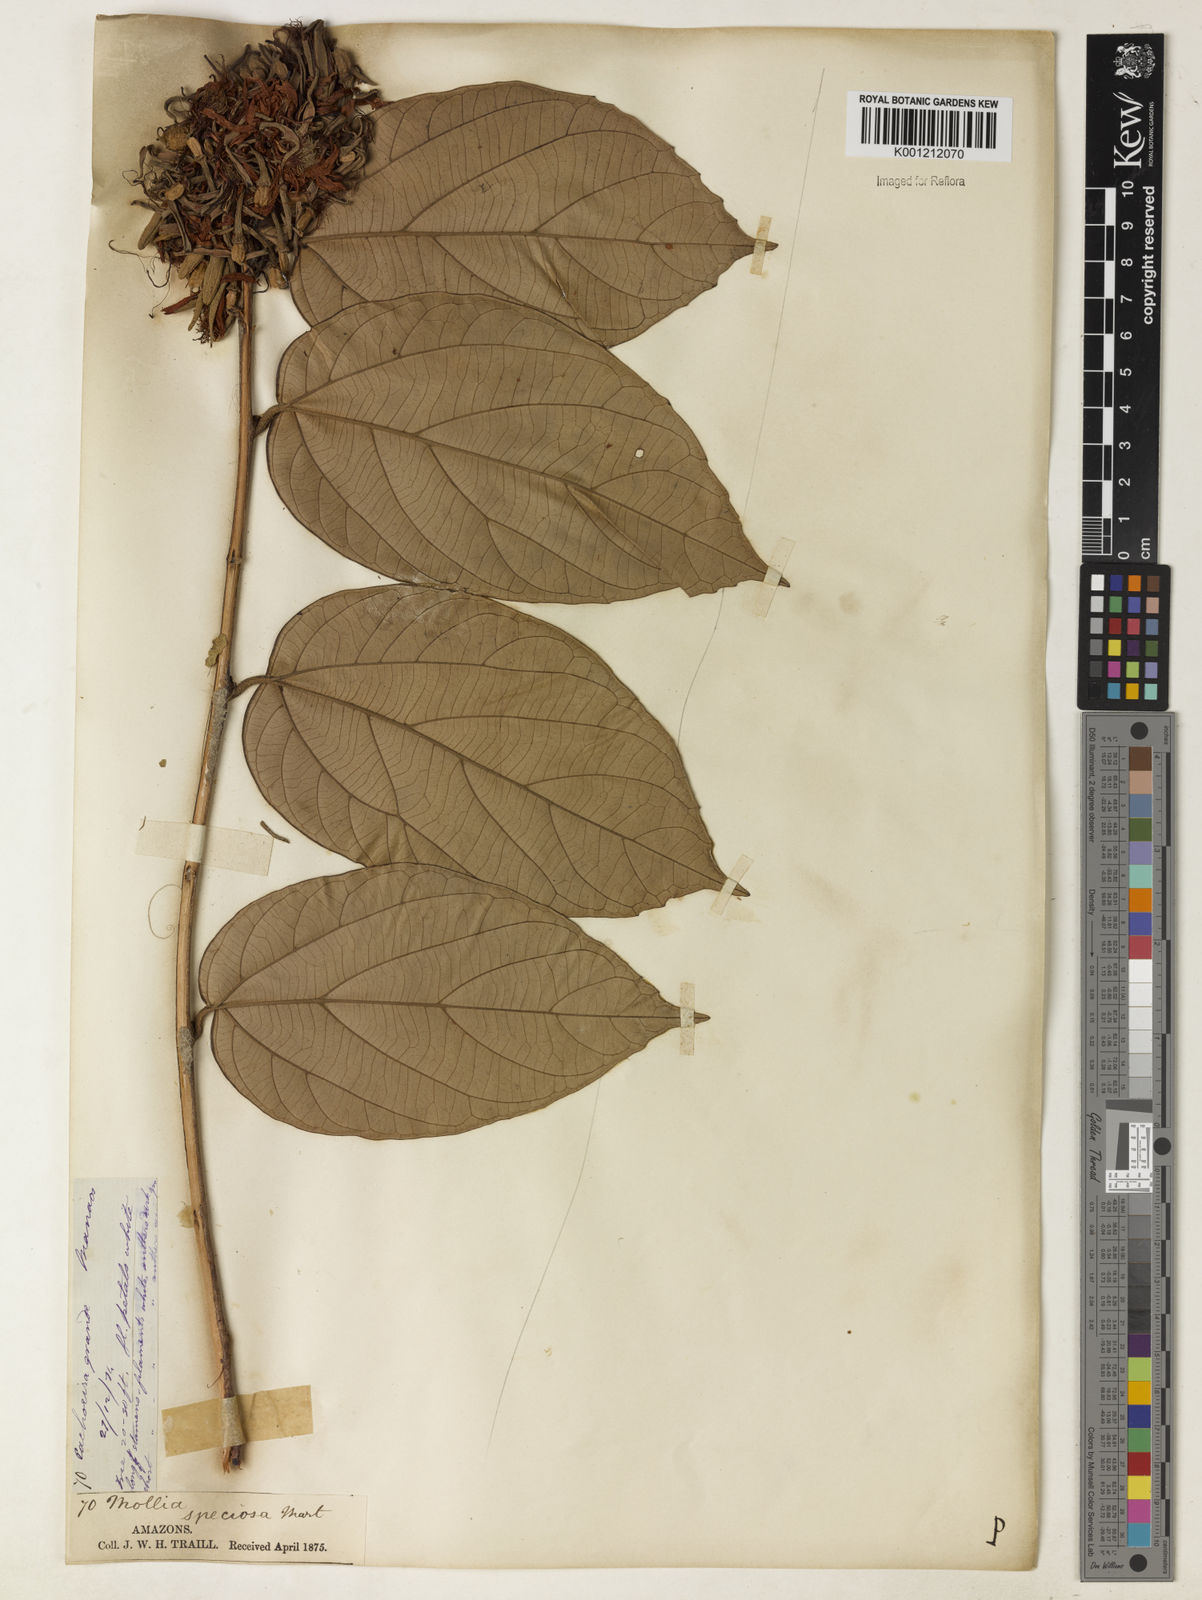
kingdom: Plantae
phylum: Tracheophyta
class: Magnoliopsida
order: Malvales
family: Malvaceae
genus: Mollia
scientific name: Mollia speciosa
